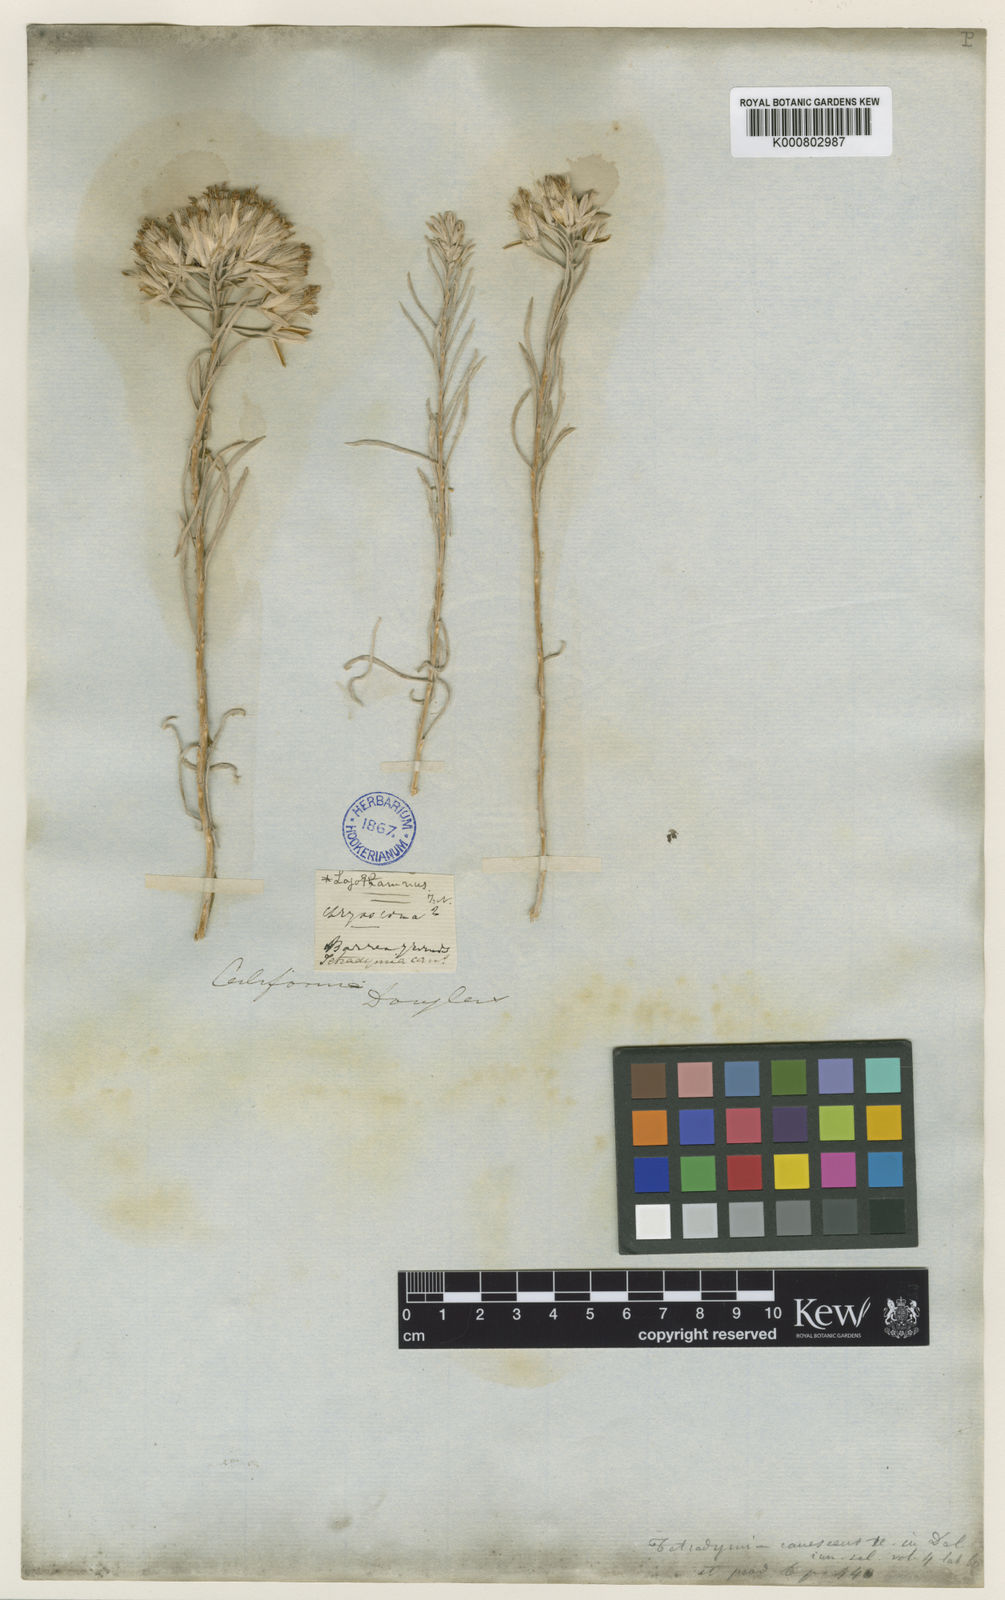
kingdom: Plantae
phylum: Tracheophyta
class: Magnoliopsida
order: Asterales
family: Asteraceae
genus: Tetradymia
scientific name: Tetradymia canescens
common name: Spineless horsebrush
